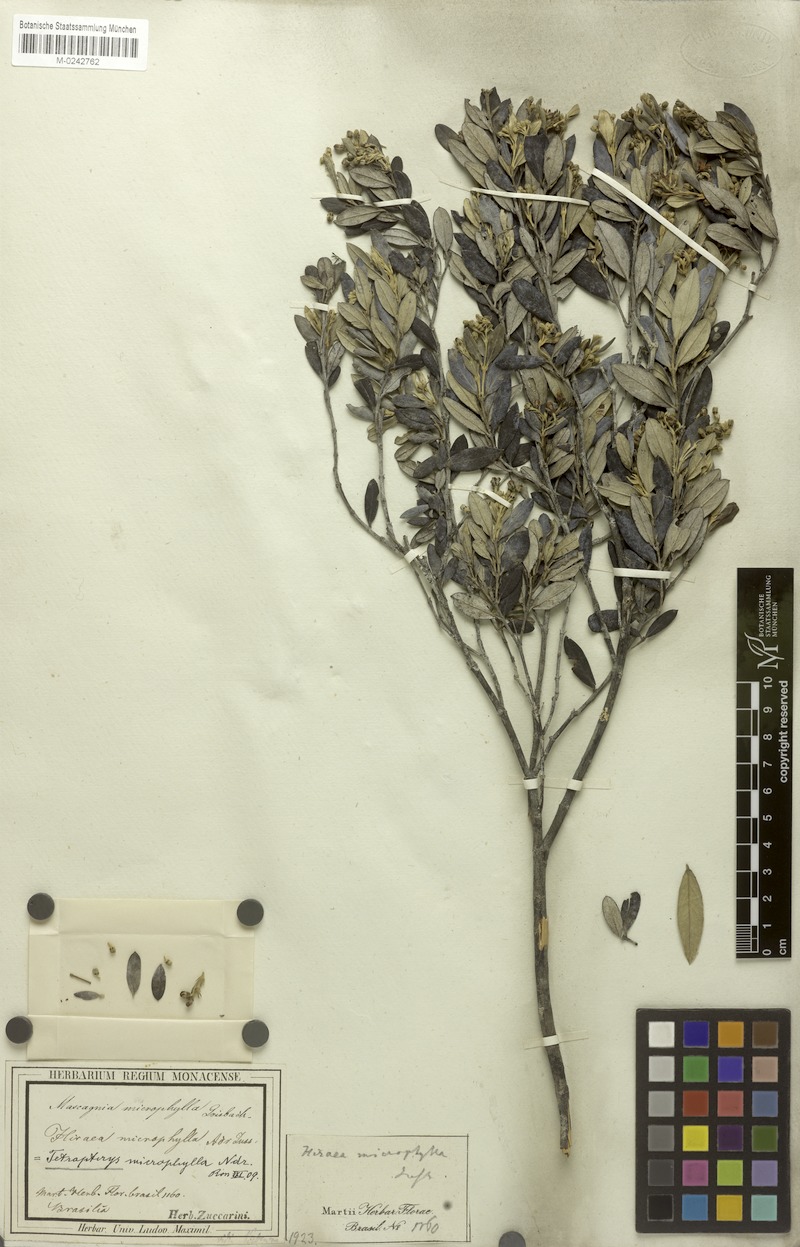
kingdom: Plantae
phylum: Tracheophyta
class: Magnoliopsida
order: Malpighiales
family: Malpighiaceae
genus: Glicophyllum
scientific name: Glicophyllum microphyllum
